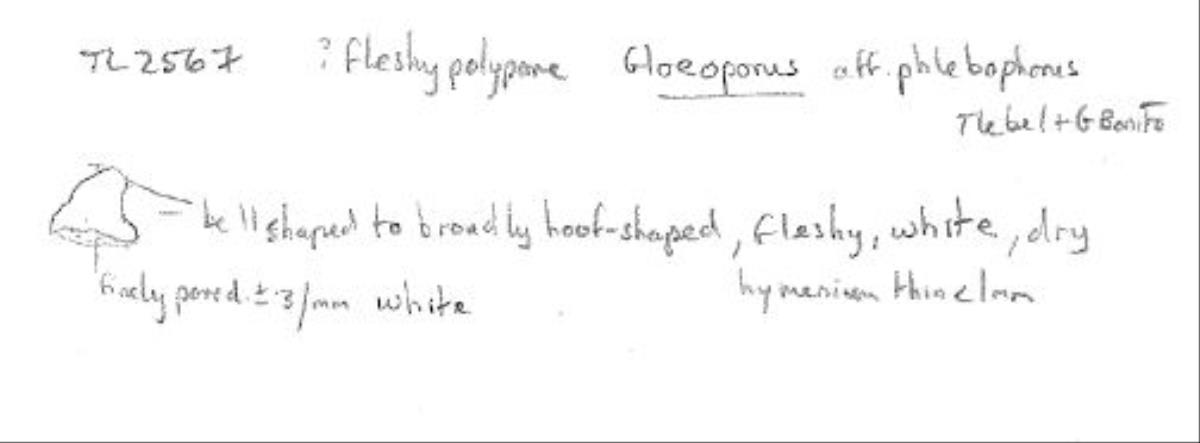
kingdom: Fungi
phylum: Basidiomycota
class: Agaricomycetes
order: Polyporales
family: Irpicaceae
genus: Gloeoporus
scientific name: Gloeoporus phlebophorus
